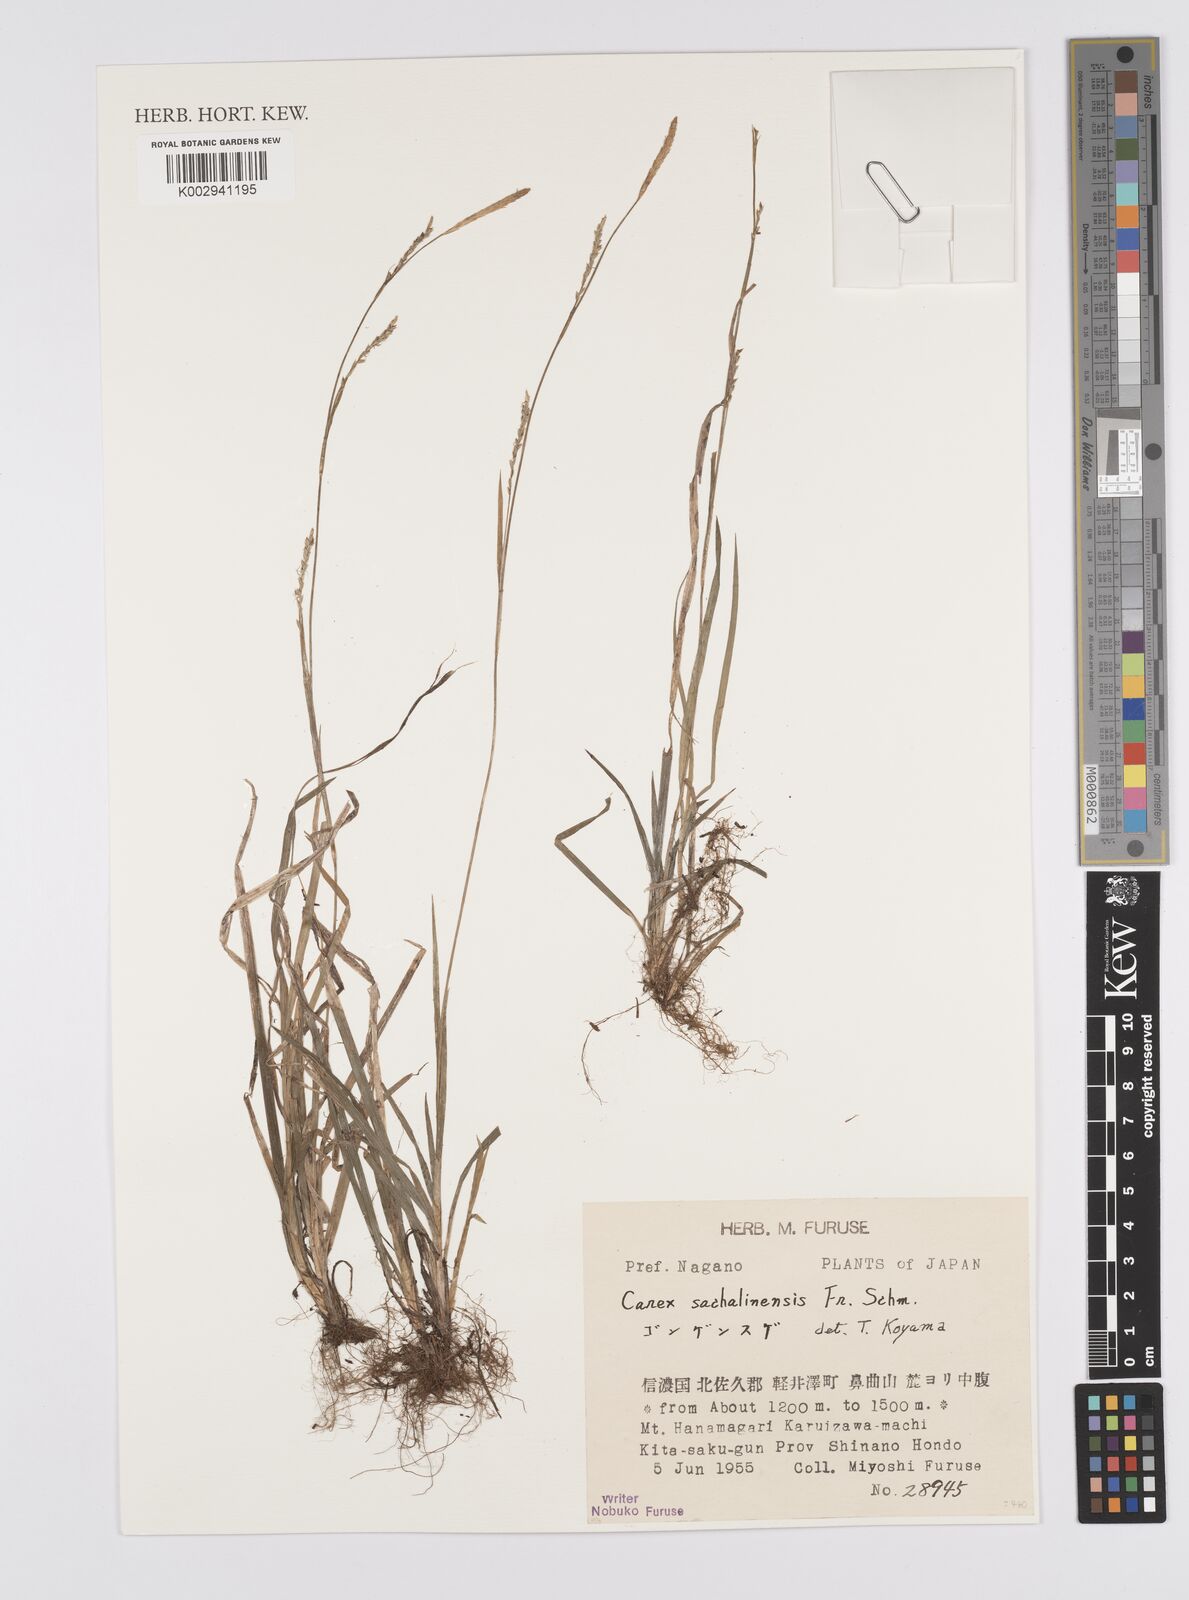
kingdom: Plantae
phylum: Tracheophyta
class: Liliopsida
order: Poales
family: Cyperaceae
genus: Carex
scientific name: Carex pisiformis
